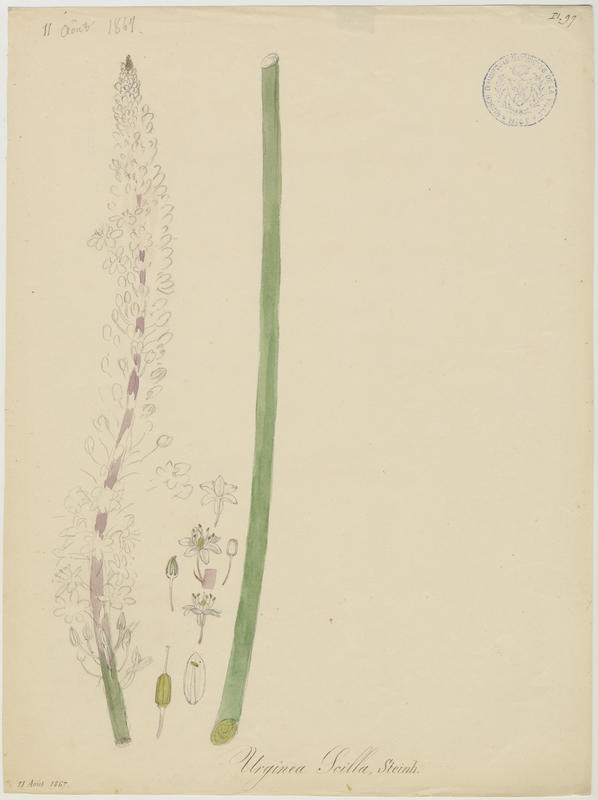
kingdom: Plantae
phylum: Tracheophyta
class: Liliopsida
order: Asparagales
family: Asparagaceae
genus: Drimia
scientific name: Drimia maritima
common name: Maritime squill
